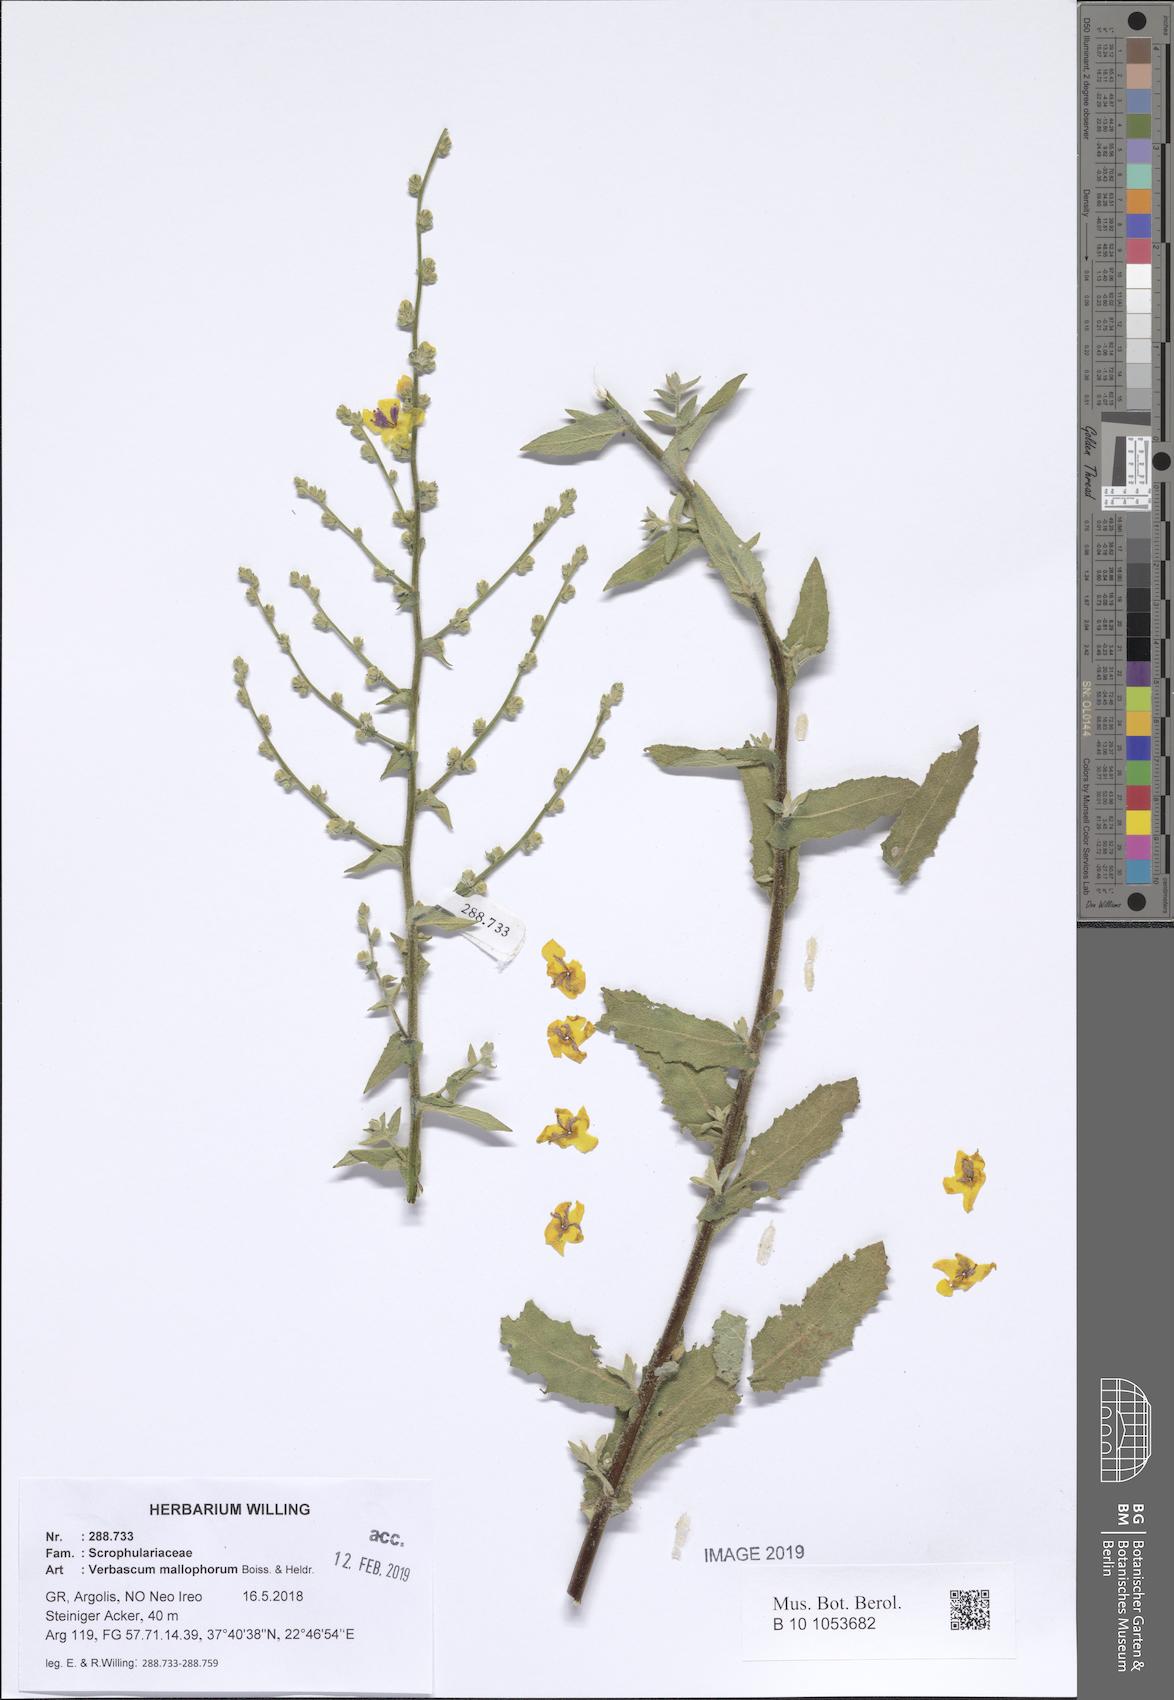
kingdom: Plantae
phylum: Tracheophyta
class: Magnoliopsida
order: Lamiales
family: Scrophulariaceae
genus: Verbascum
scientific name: Verbascum mallophorum
